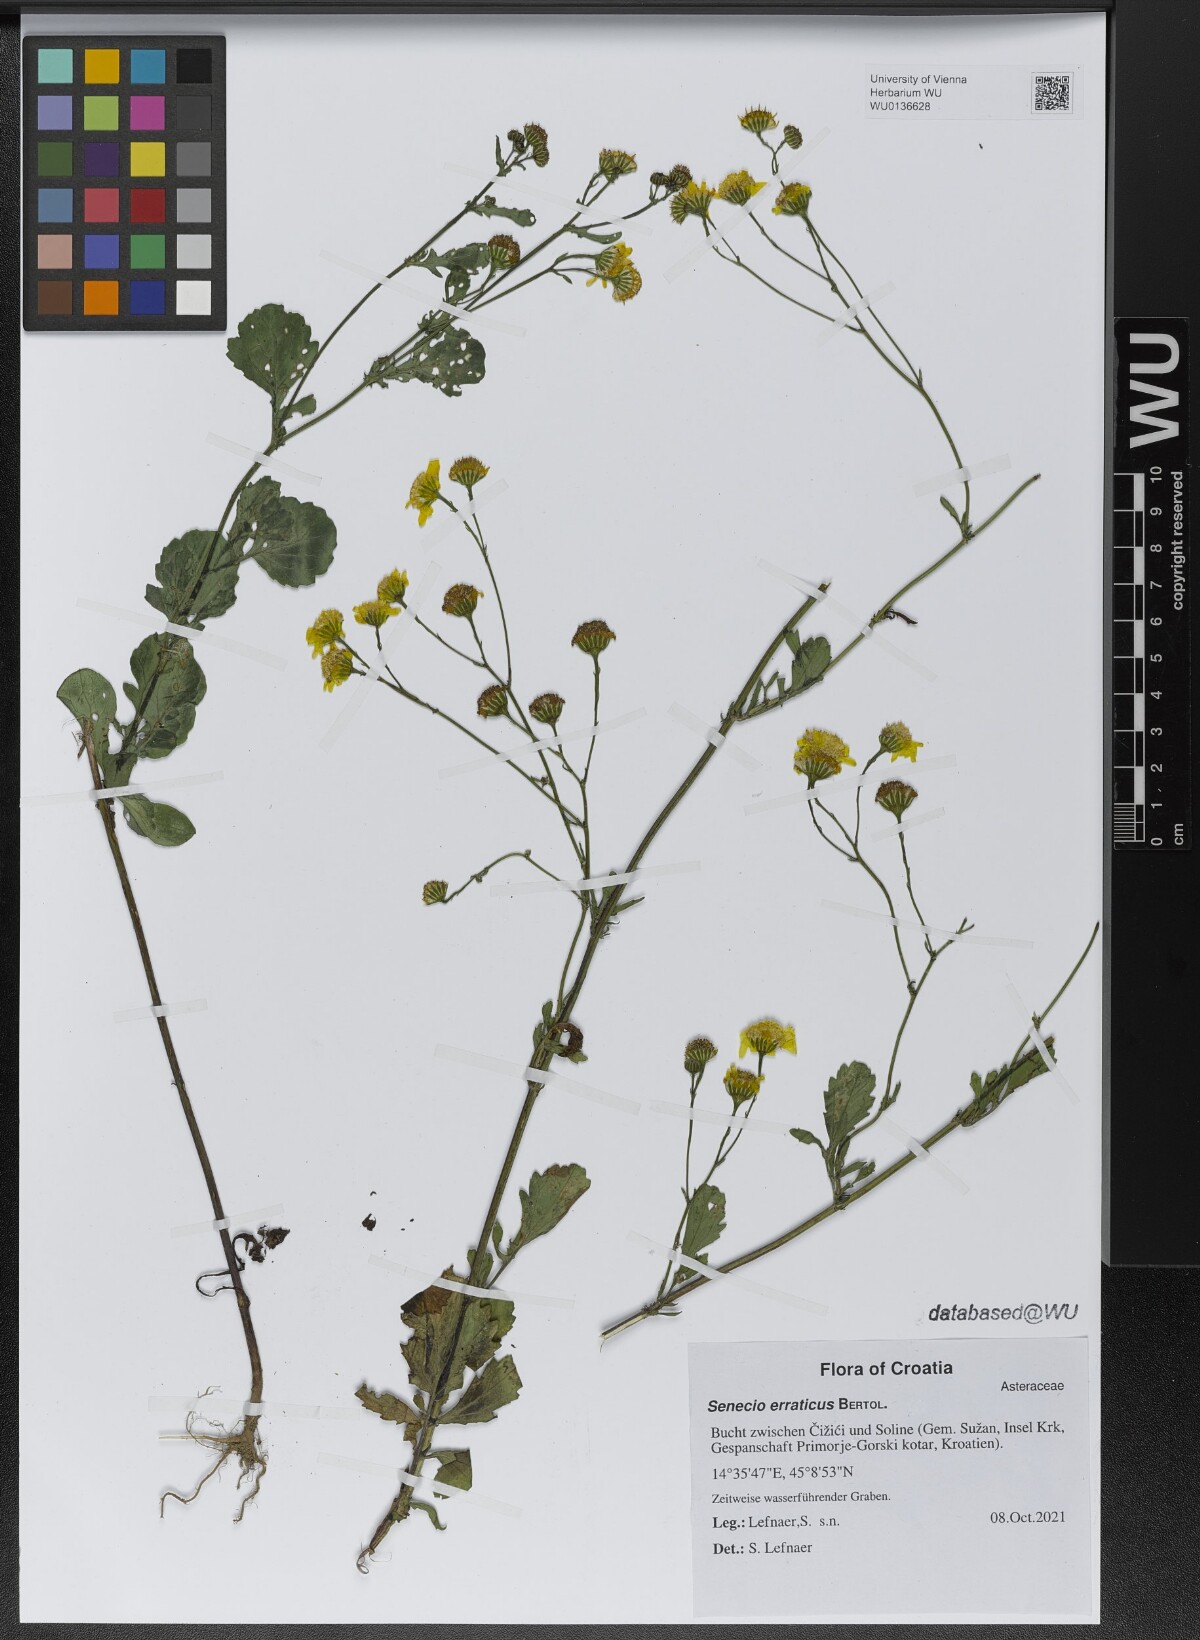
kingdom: Plantae
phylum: Tracheophyta
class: Magnoliopsida
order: Asterales
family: Asteraceae
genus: Jacobaea
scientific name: Jacobaea erratica
